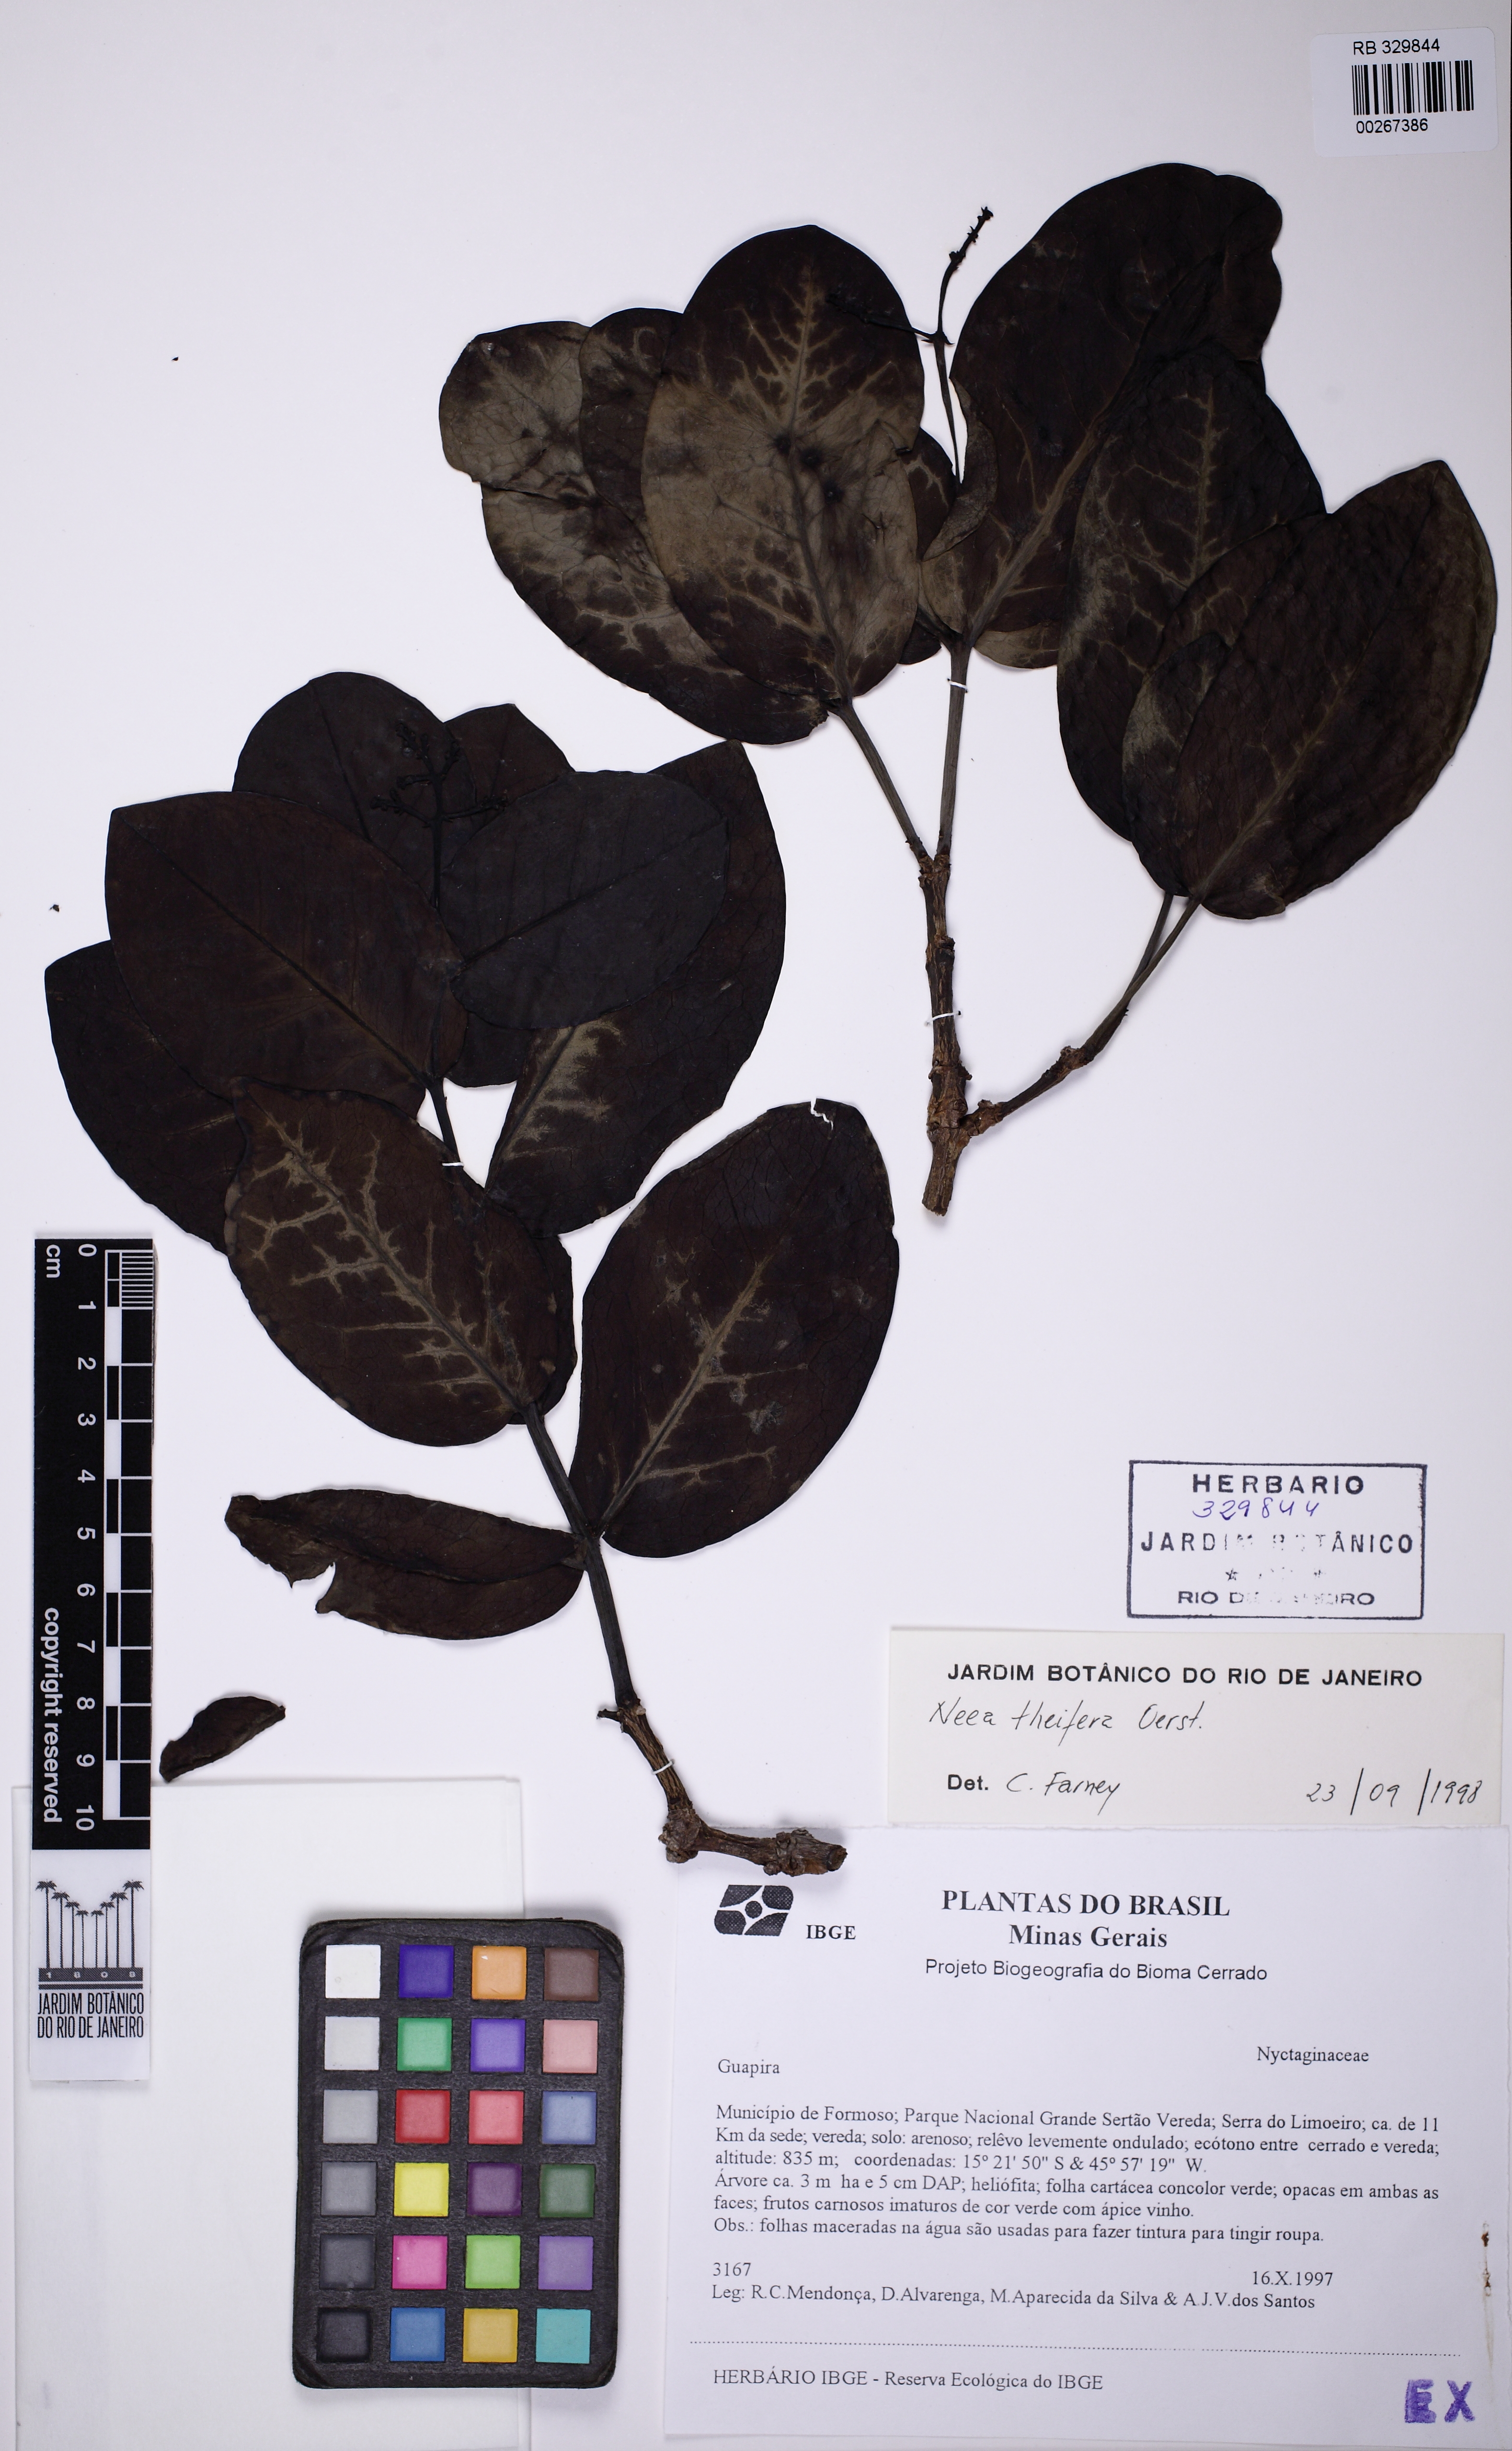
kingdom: Plantae
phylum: Tracheophyta
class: Magnoliopsida
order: Caryophyllales
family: Nyctaginaceae
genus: Neea
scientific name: Neea theifera
